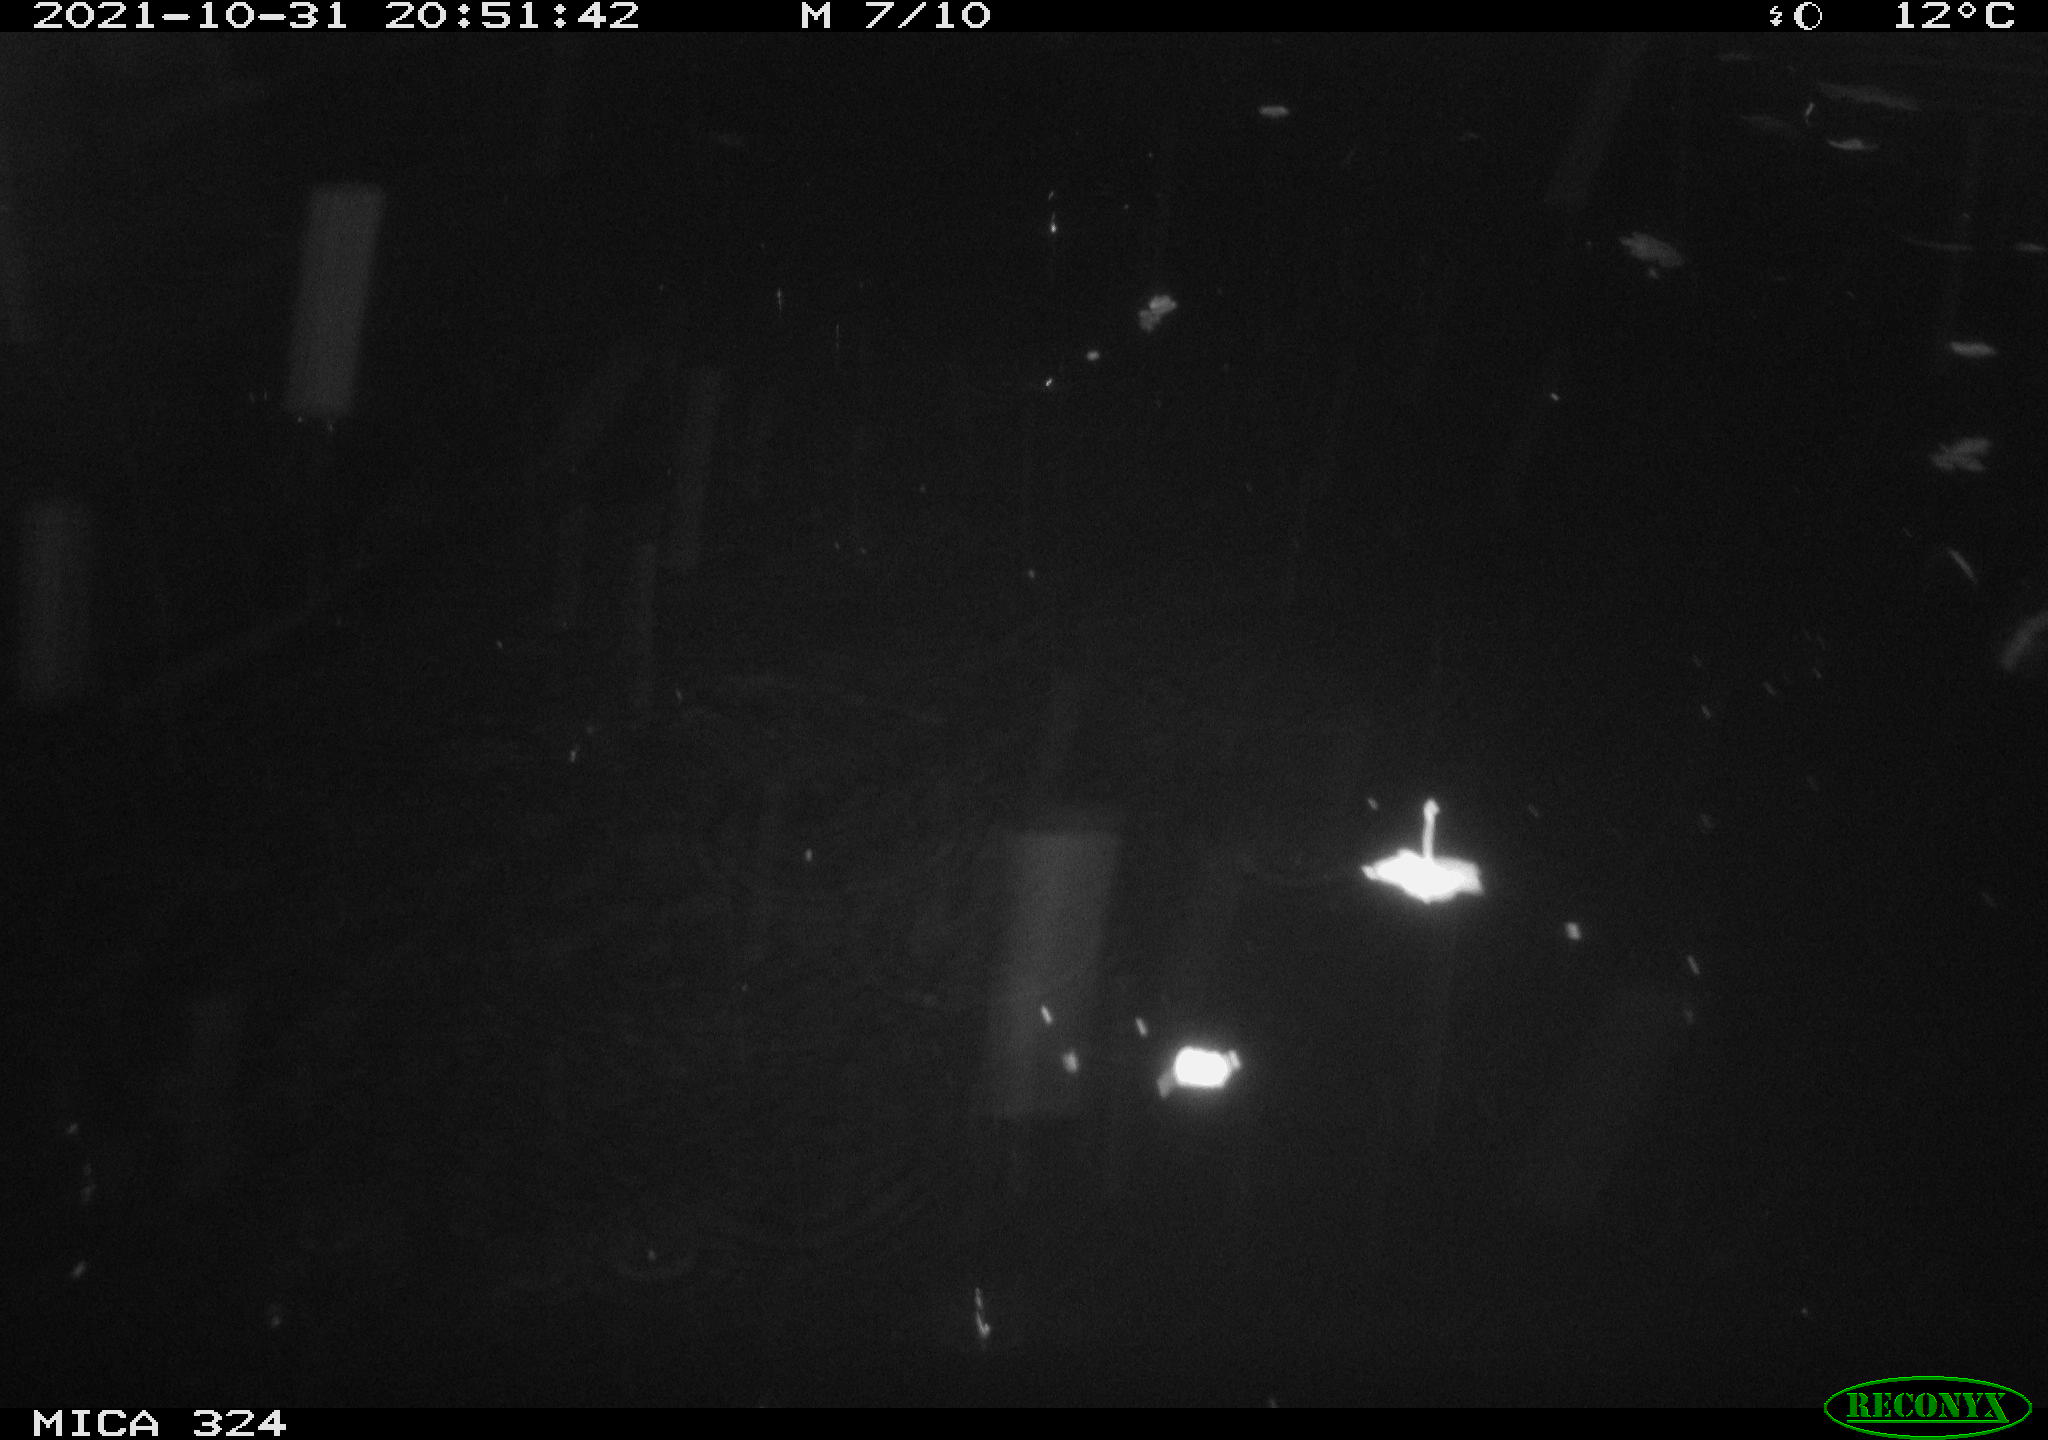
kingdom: Animalia
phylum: Chordata
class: Mammalia
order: Rodentia
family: Cricetidae
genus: Ondatra
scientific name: Ondatra zibethicus
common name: Muskrat
